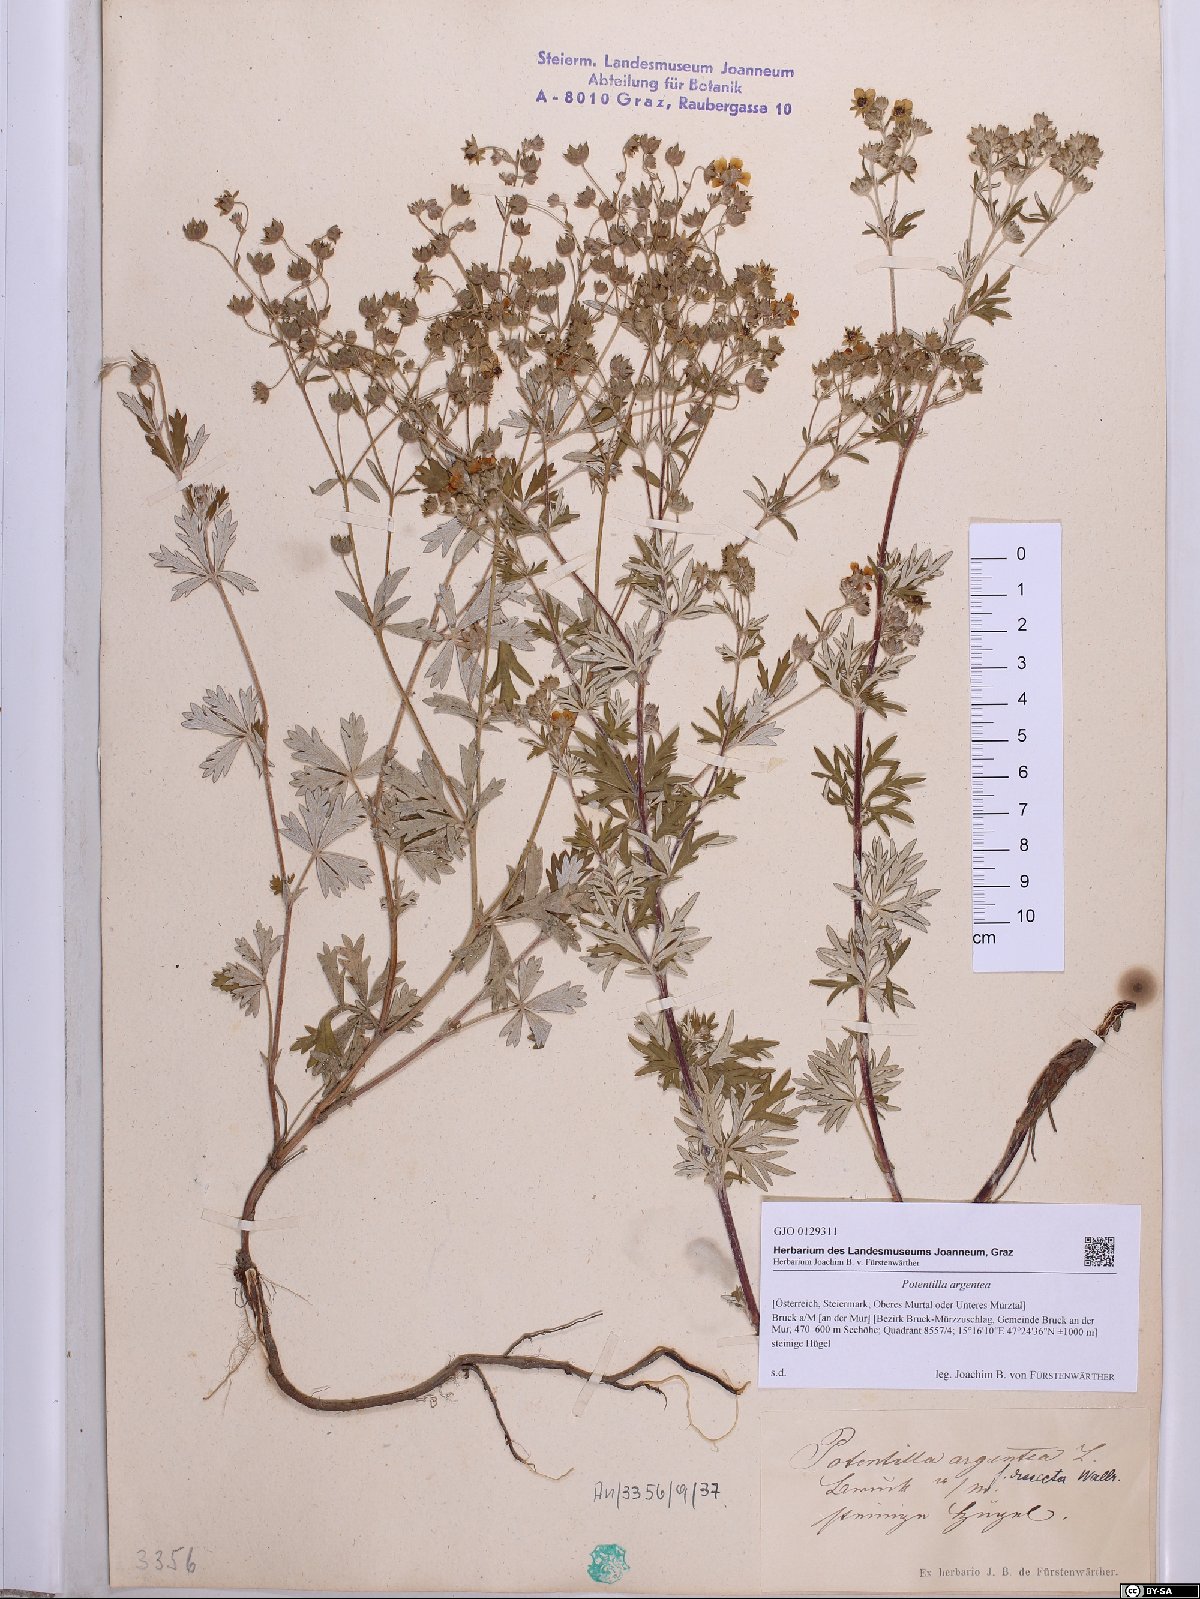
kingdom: Plantae
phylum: Tracheophyta
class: Magnoliopsida
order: Rosales
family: Rosaceae
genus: Potentilla
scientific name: Potentilla argentea
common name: Hoary cinquefoil
